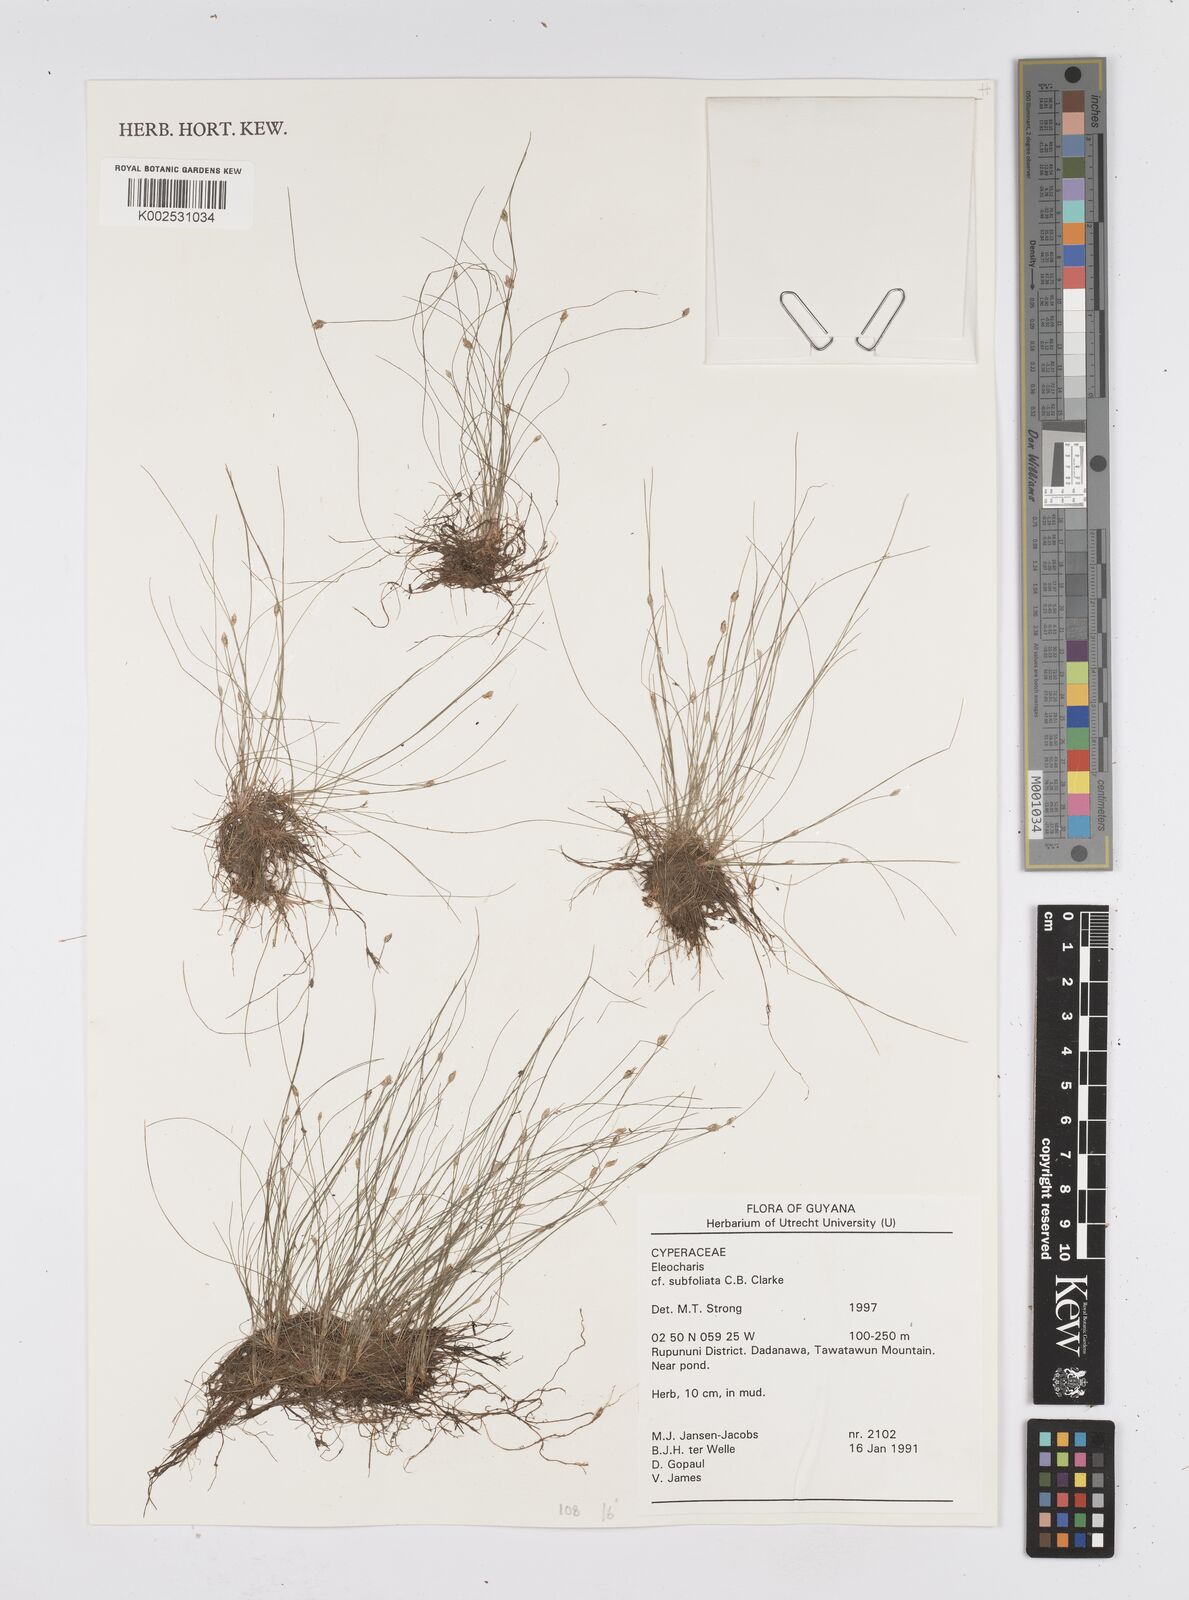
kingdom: Plantae
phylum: Tracheophyta
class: Liliopsida
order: Poales
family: Cyperaceae
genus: Eleocharis
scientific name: Eleocharis subfoliata
